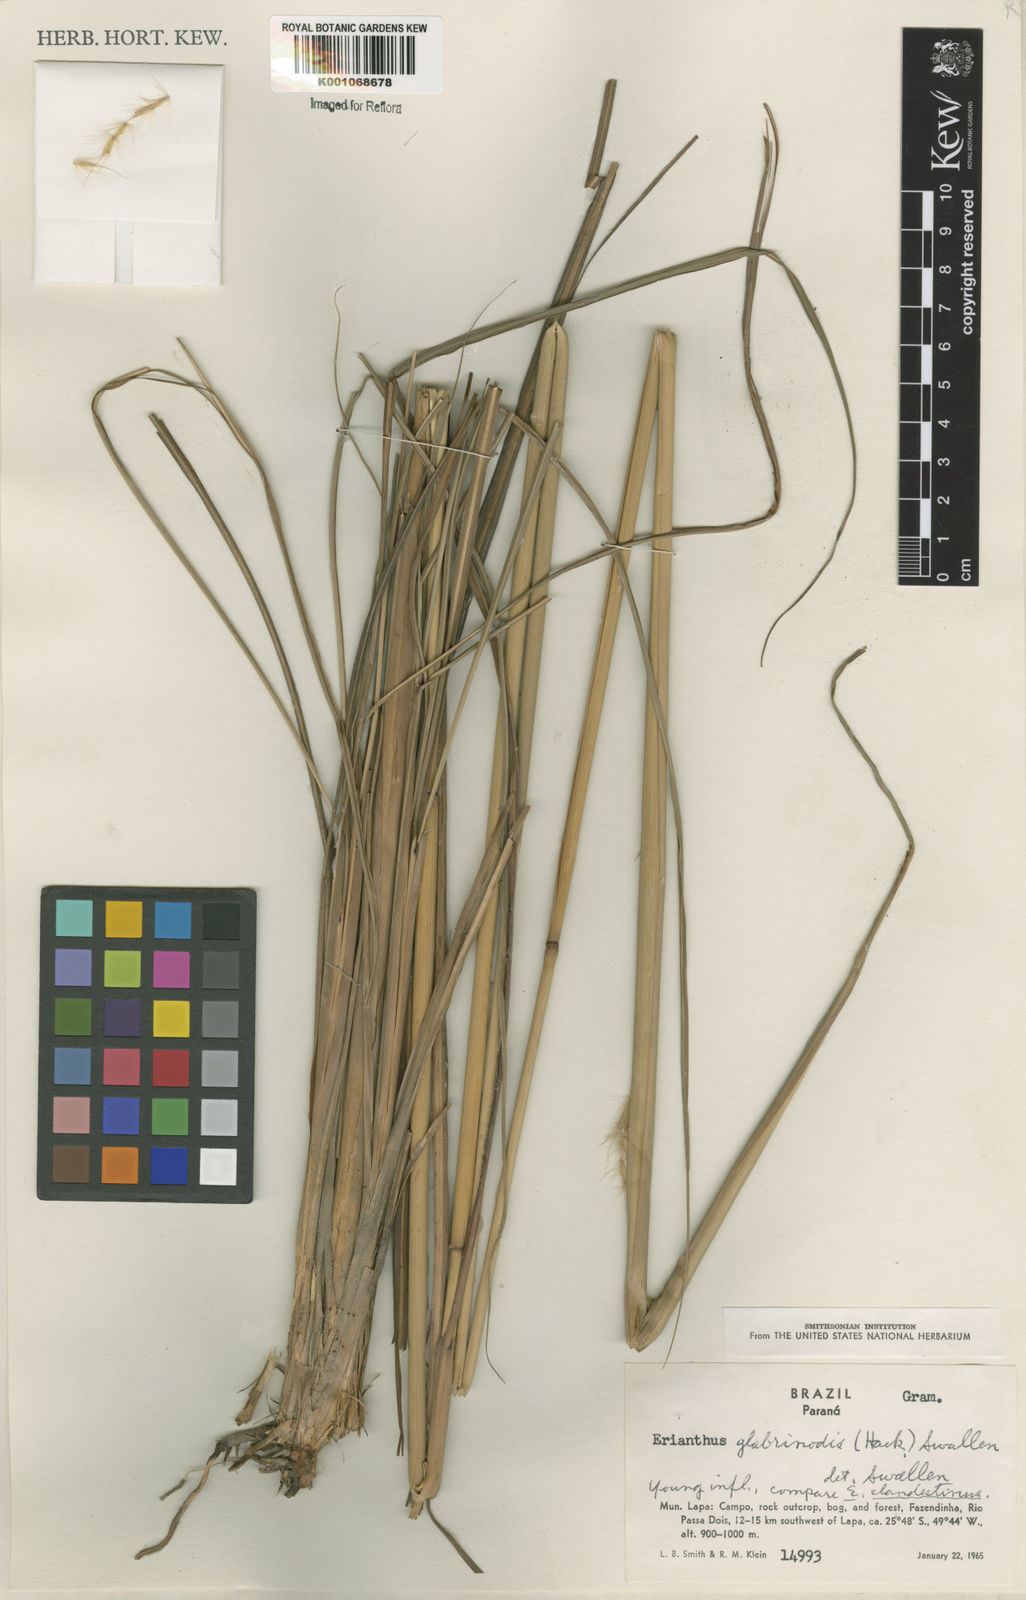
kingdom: Plantae
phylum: Tracheophyta
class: Liliopsida
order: Poales
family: Poaceae
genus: Erianthus
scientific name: Erianthus trinii
